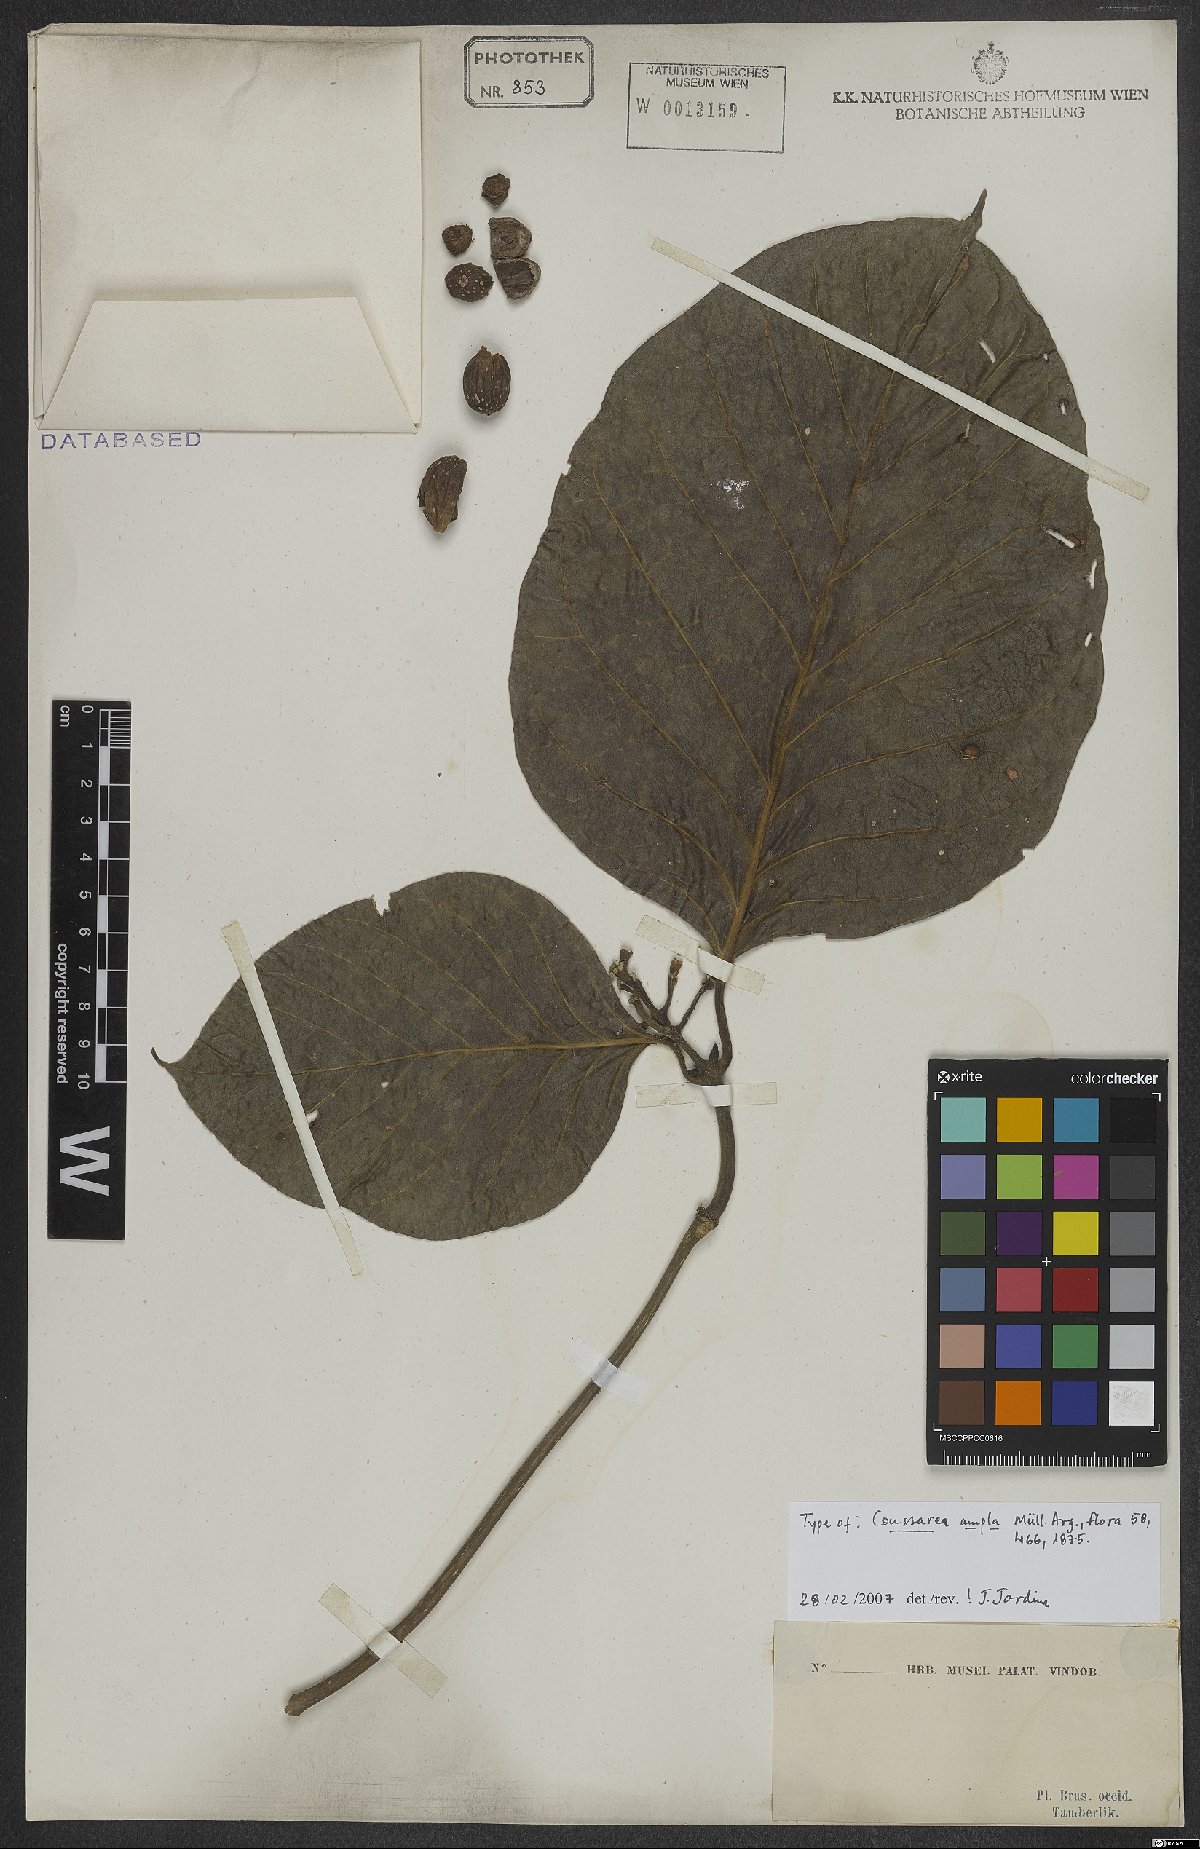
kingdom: Plantae
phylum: Tracheophyta
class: Magnoliopsida
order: Gentianales
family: Rubiaceae
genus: Coussarea
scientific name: Coussarea ampla
